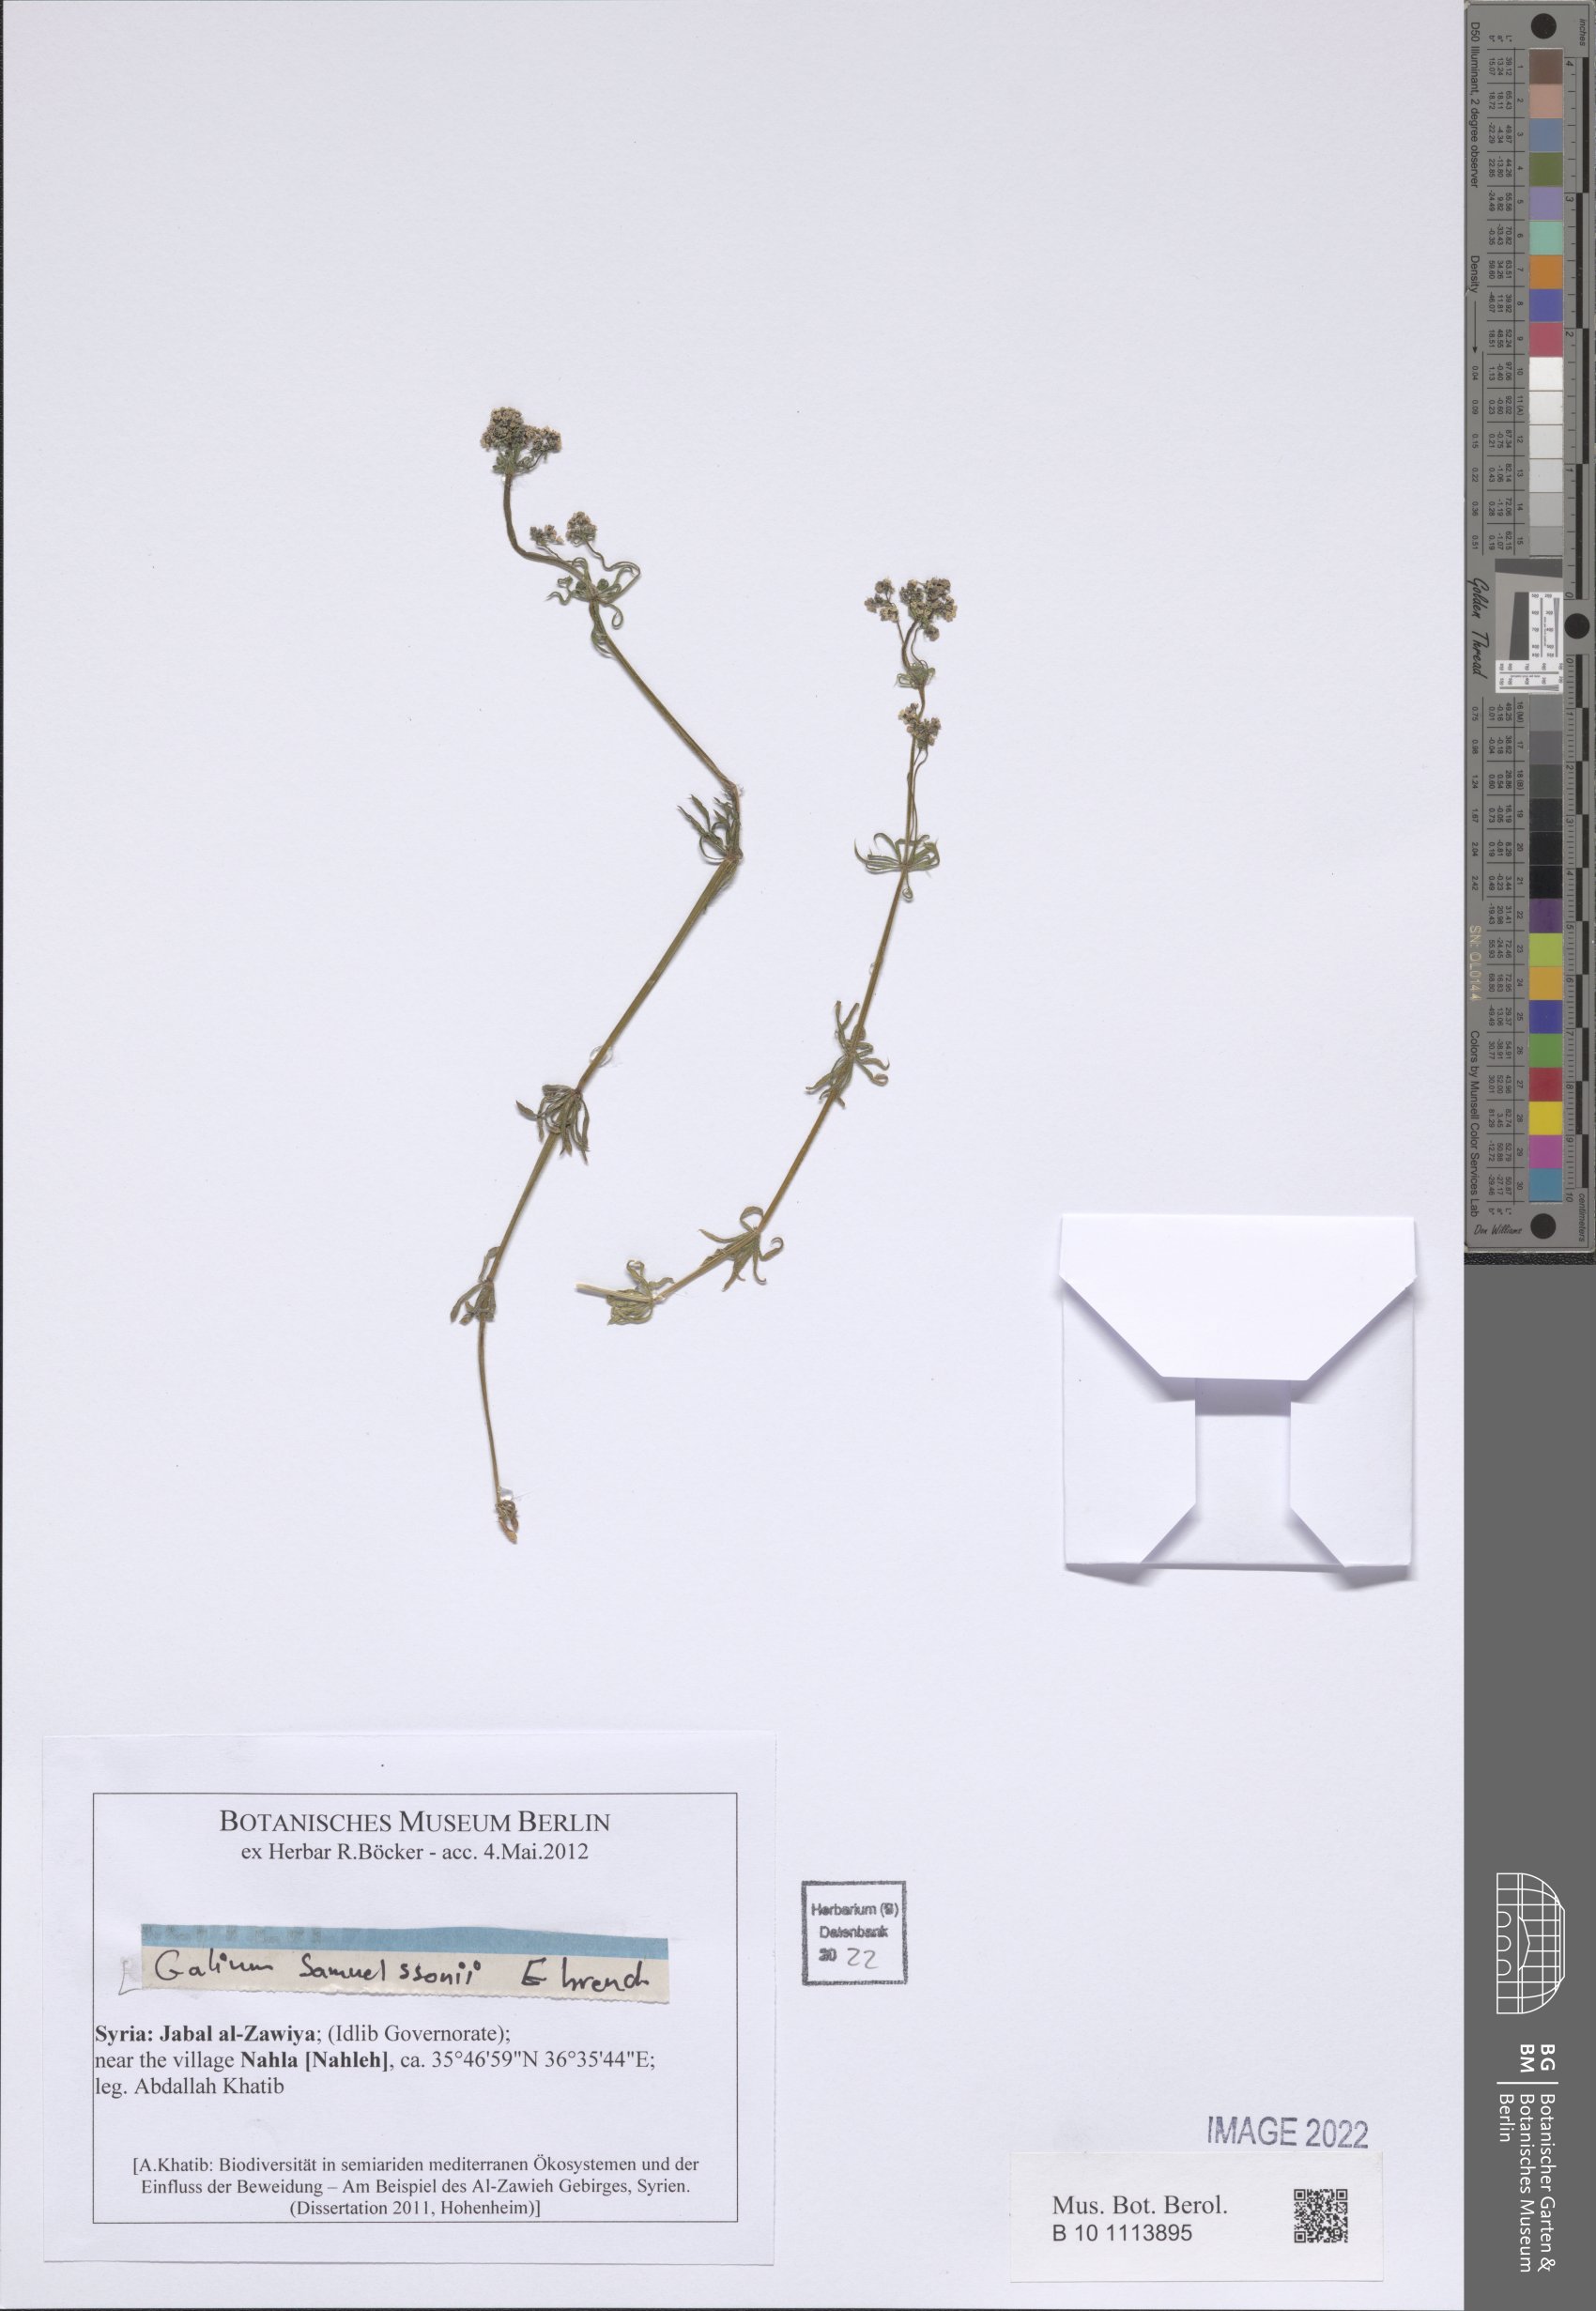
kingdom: Plantae
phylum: Tracheophyta
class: Magnoliopsida
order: Gentianales
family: Rubiaceae
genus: Galium
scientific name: Galium samuelssonii
